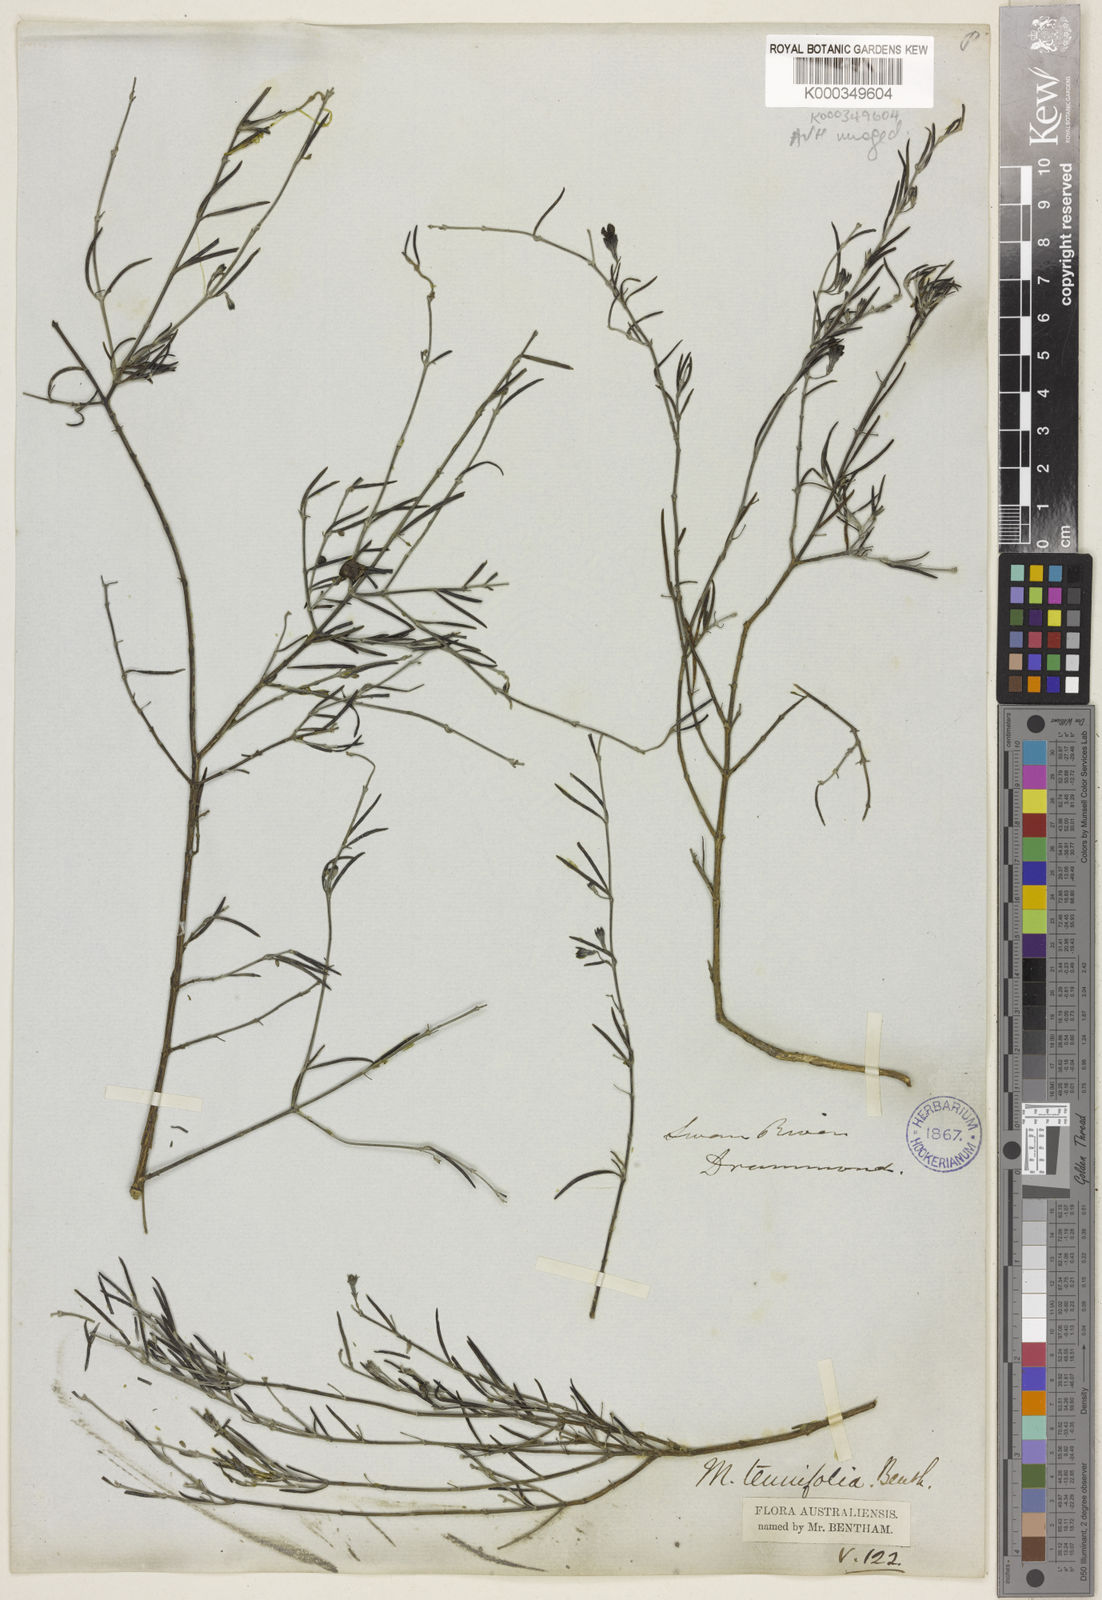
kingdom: Plantae
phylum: Tracheophyta
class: Magnoliopsida
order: Lamiales
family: Lamiaceae
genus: Microcorys
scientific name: Microcorys tenuifolia
